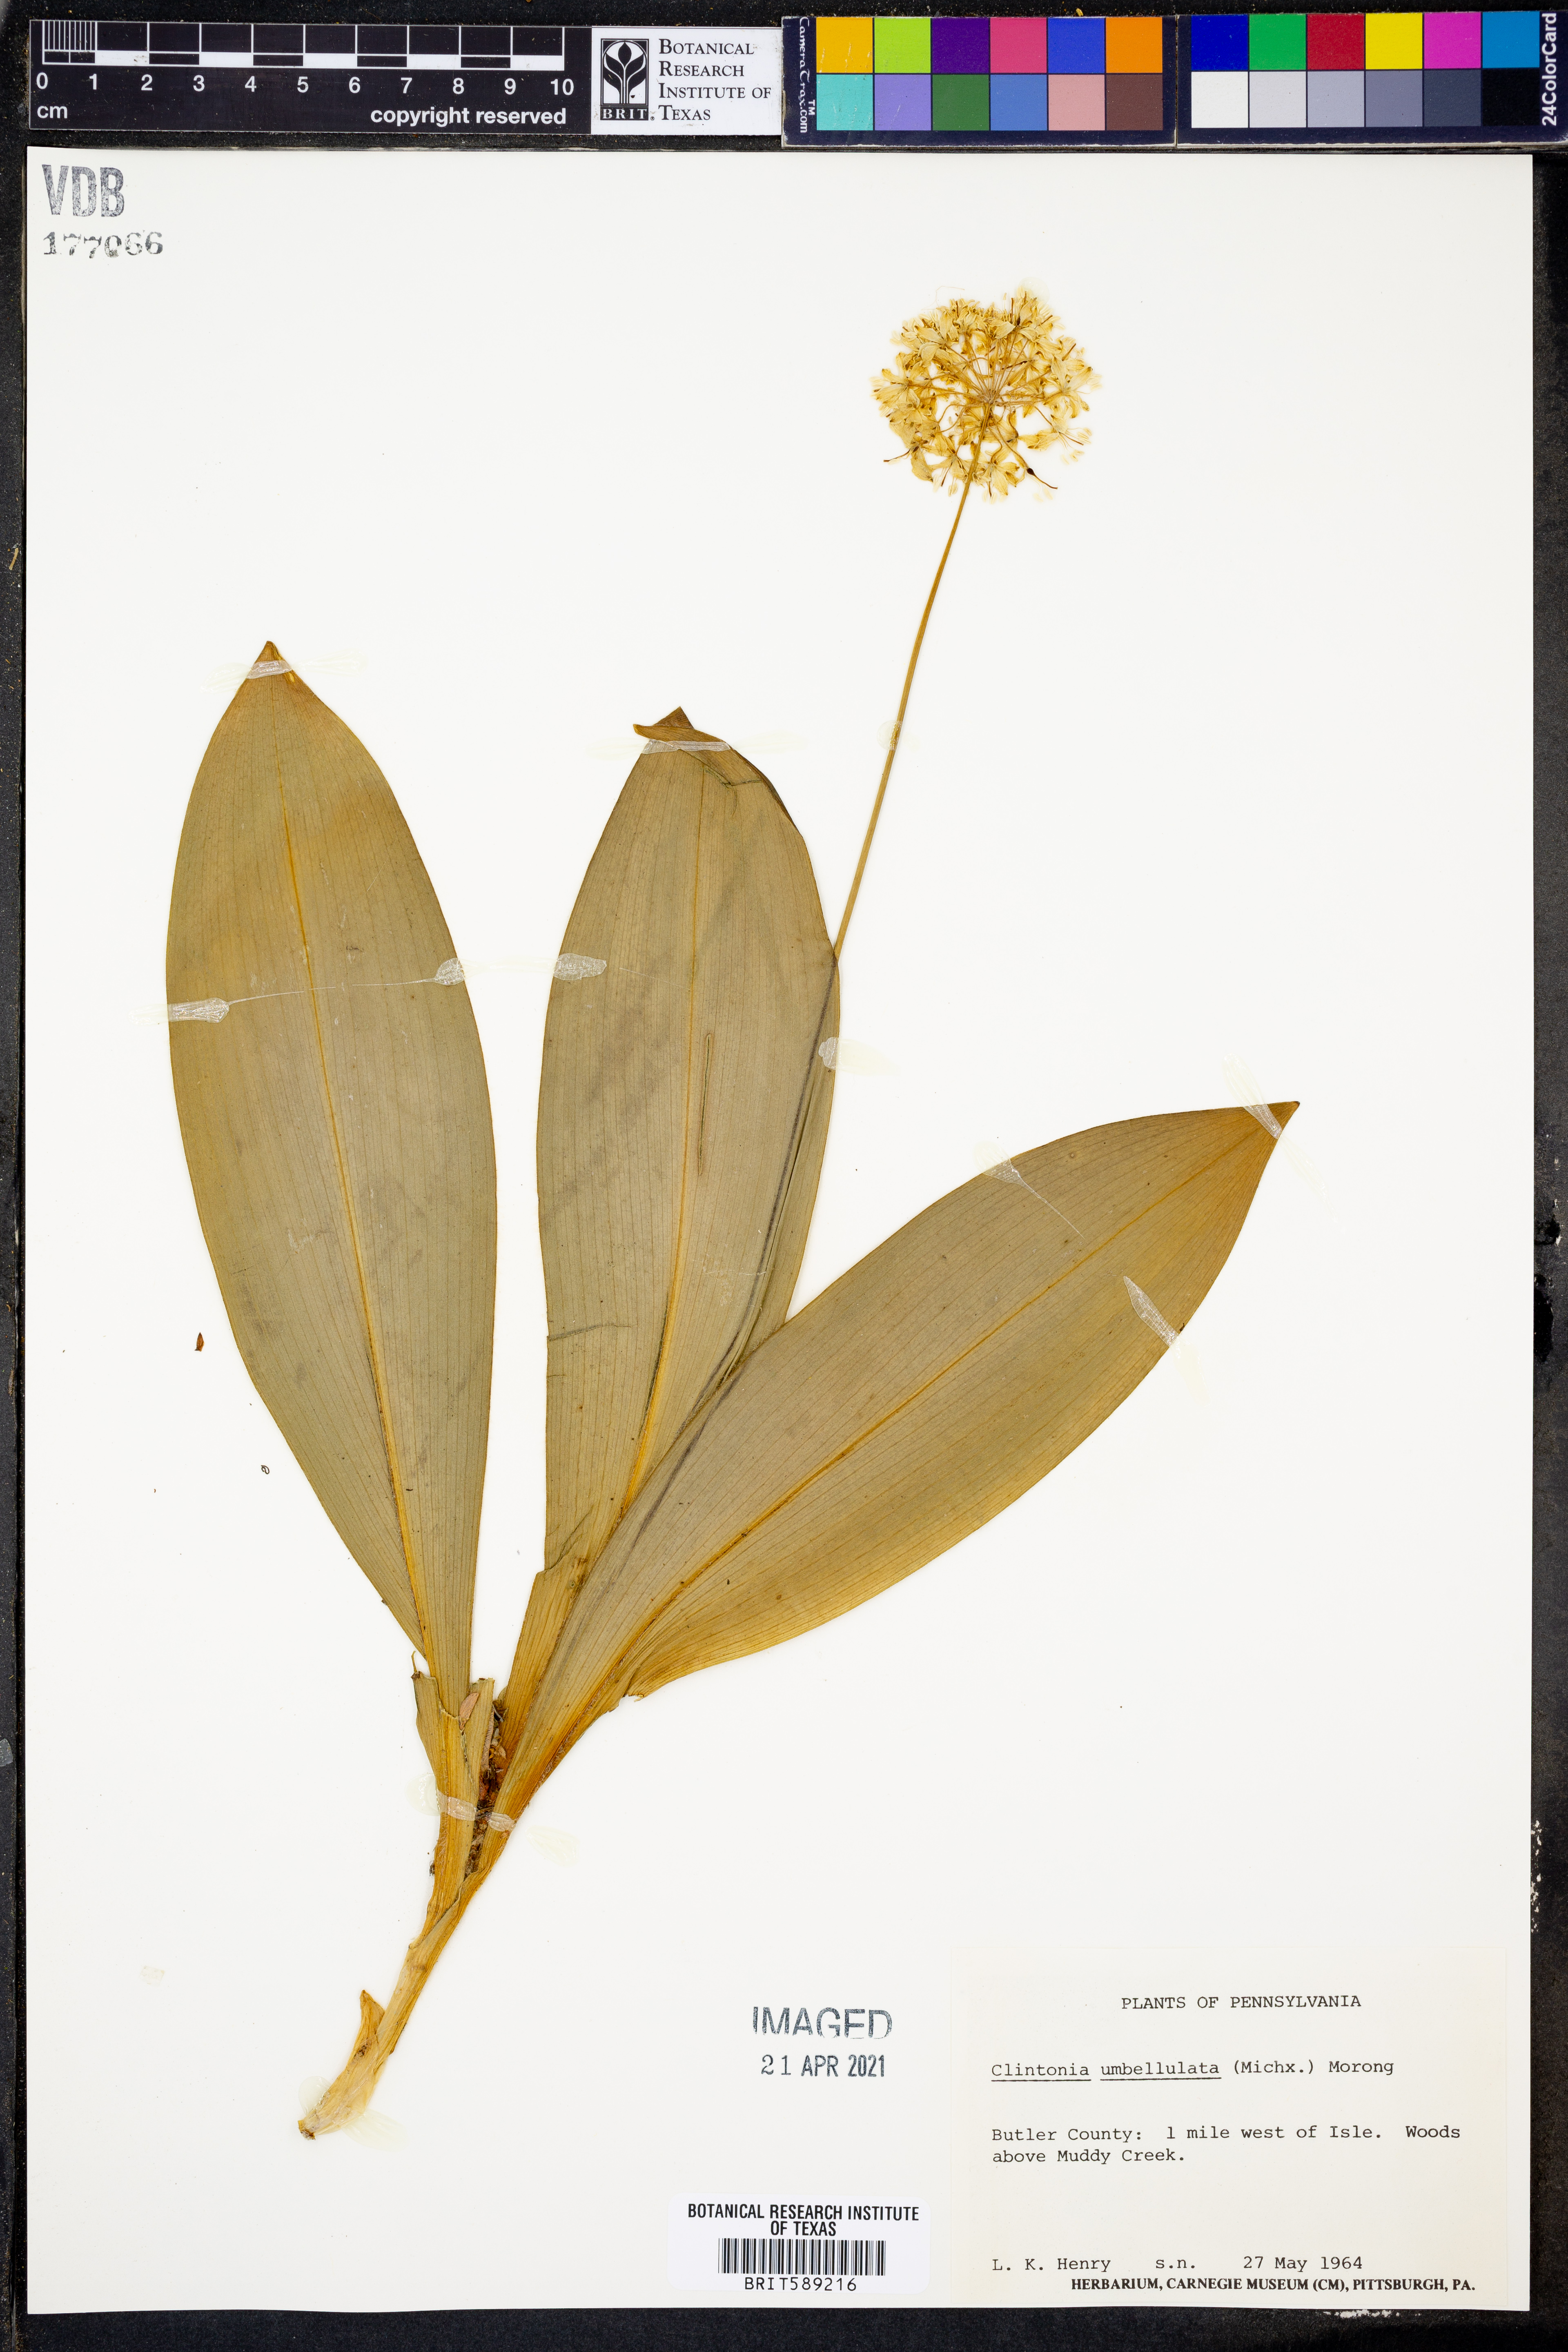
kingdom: Plantae
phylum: Tracheophyta
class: Liliopsida
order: Liliales
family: Liliaceae
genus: Clintonia
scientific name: Clintonia umbellulata
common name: Speckle wood-lily
